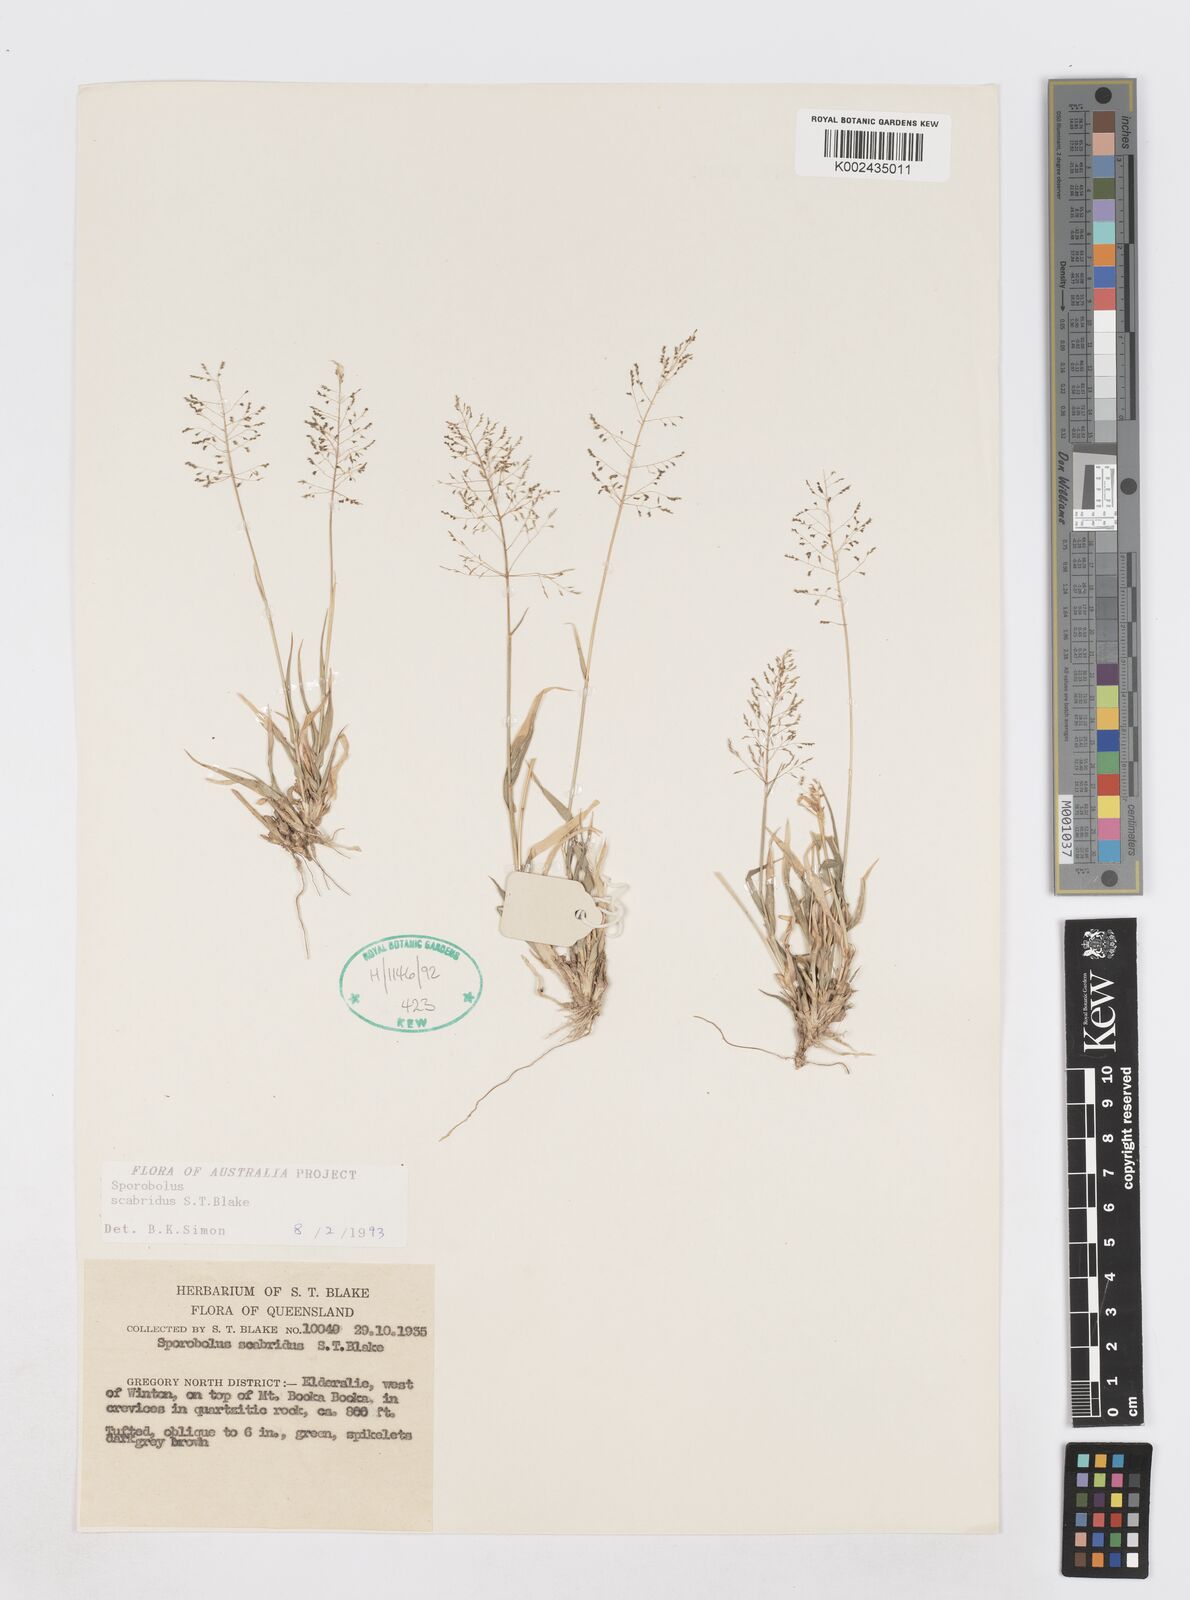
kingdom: Plantae
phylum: Tracheophyta
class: Liliopsida
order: Poales
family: Poaceae
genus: Sporobolus
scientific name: Sporobolus scabridus
